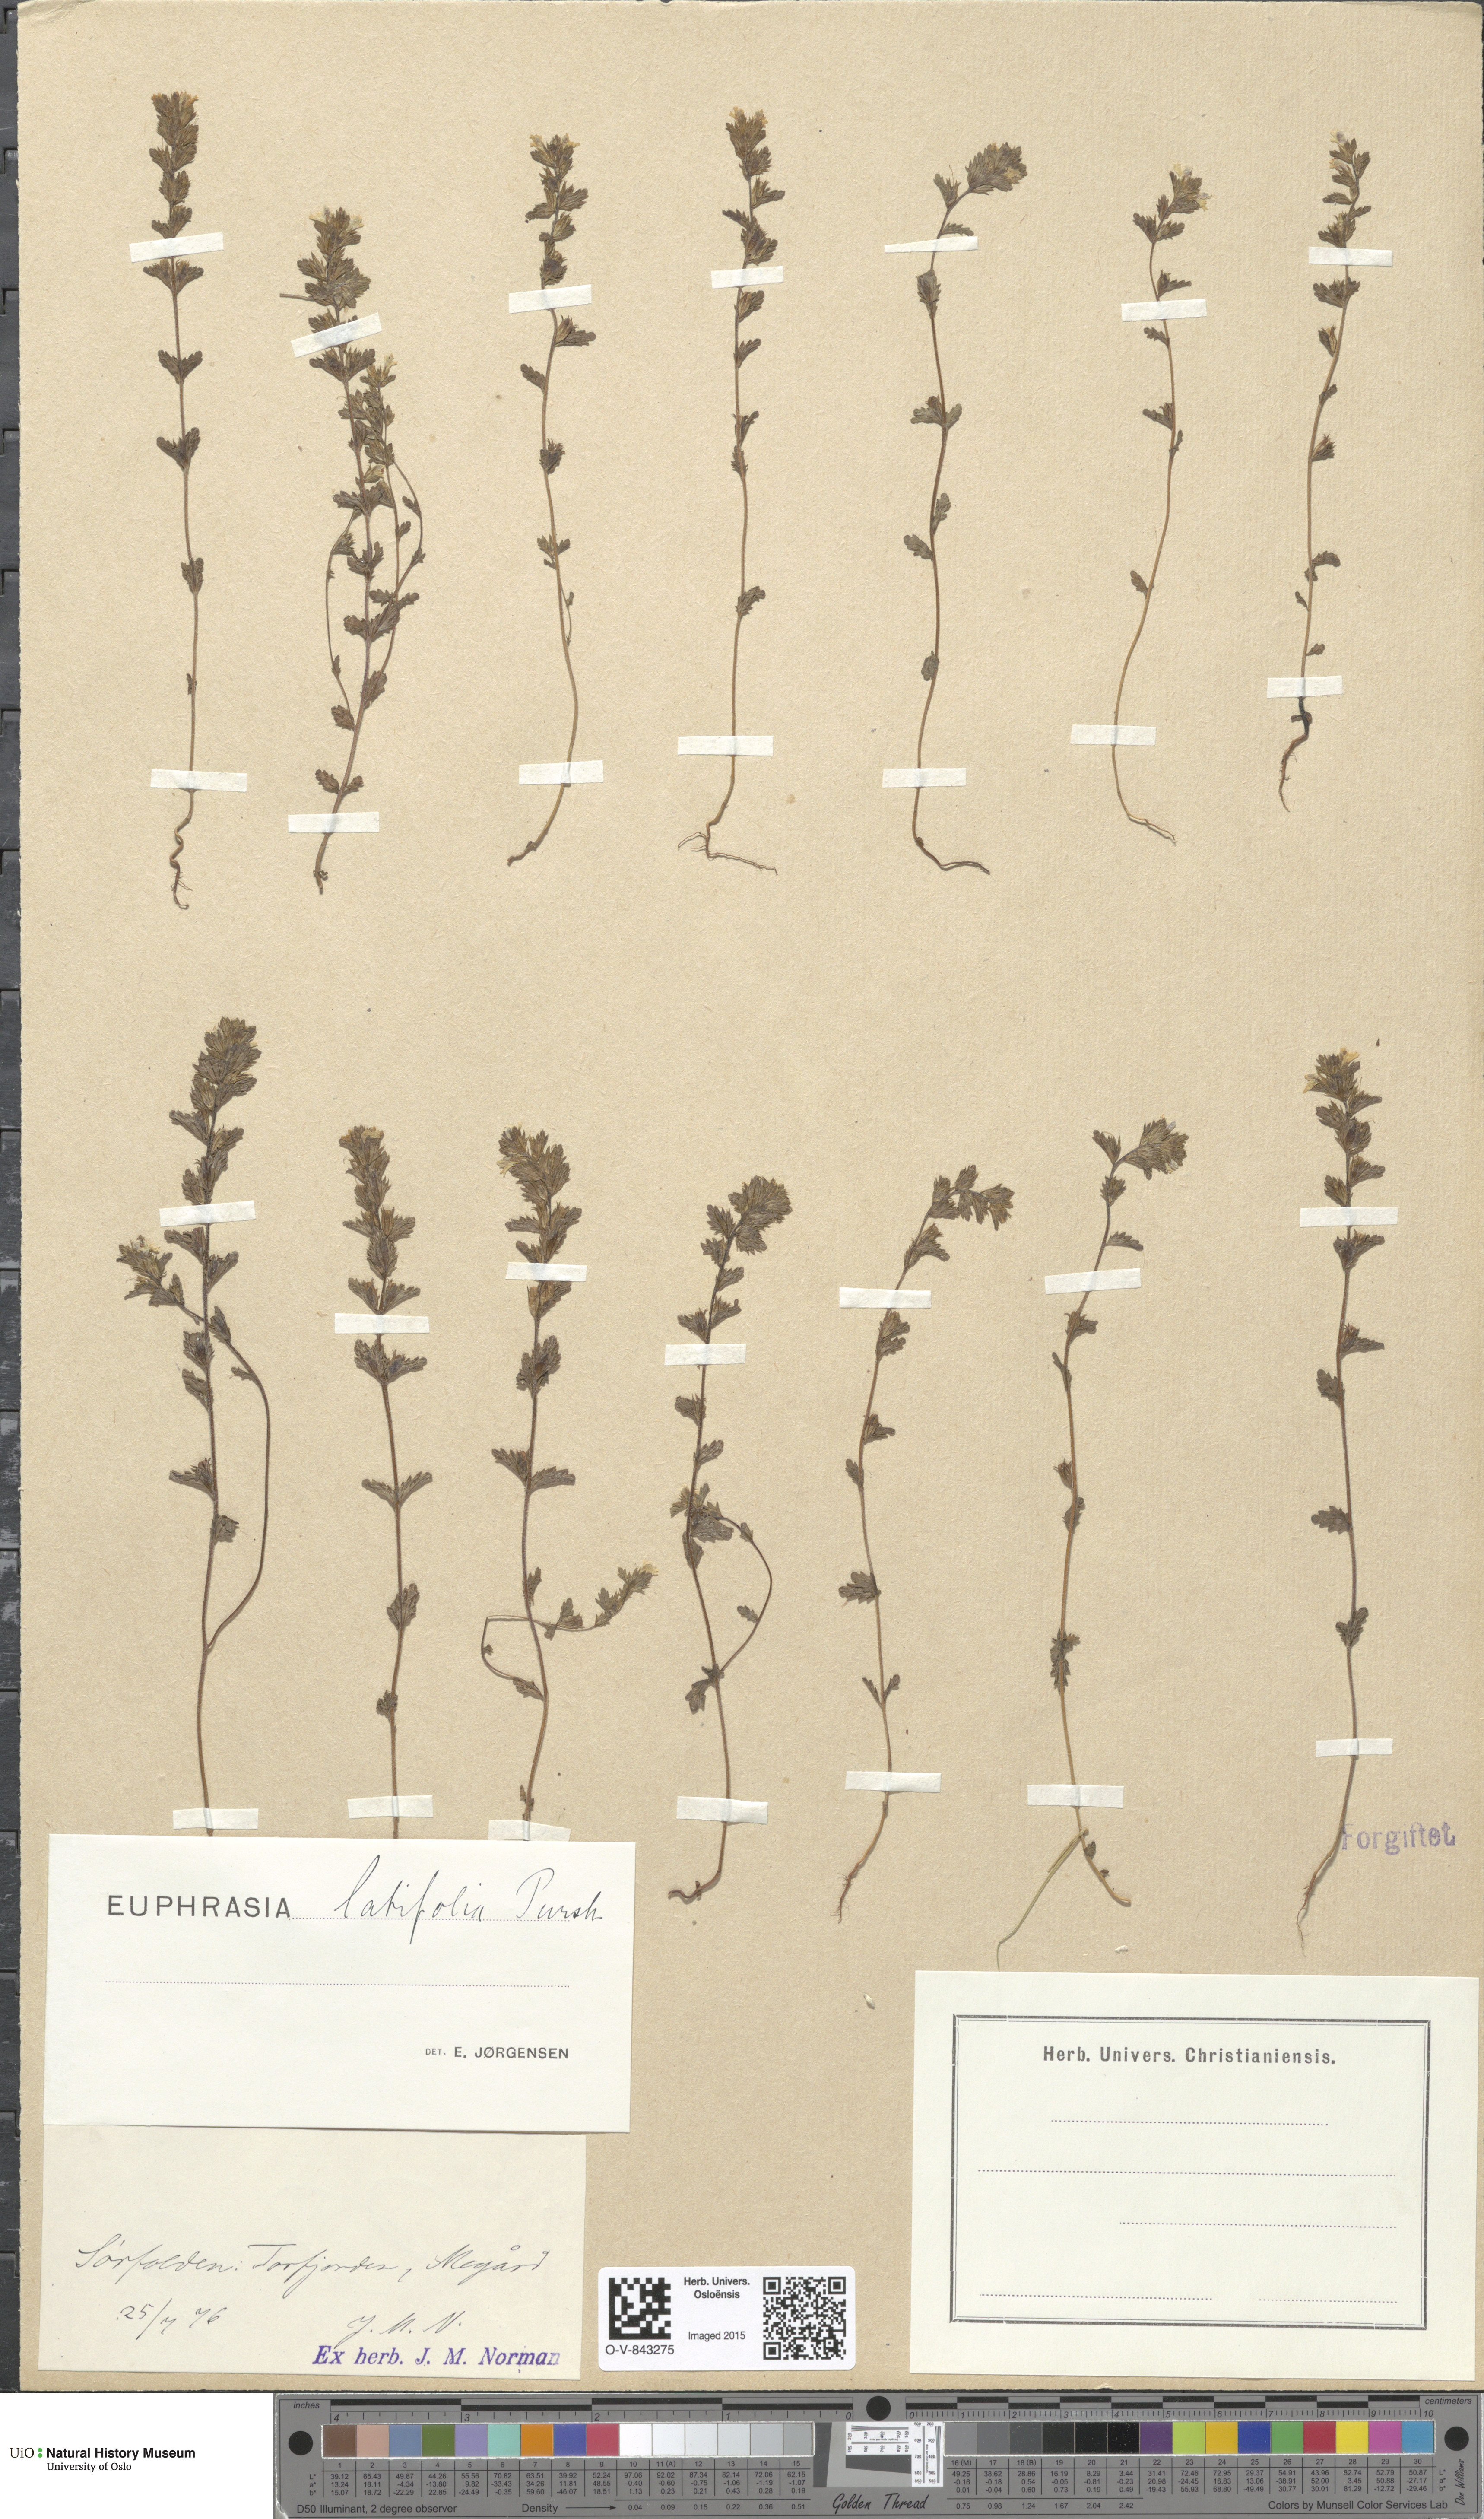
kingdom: Plantae
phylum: Tracheophyta
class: Magnoliopsida
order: Lamiales
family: Orobanchaceae
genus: Euphrasia
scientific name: Euphrasia wettsteinii
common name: Wettstein's eyebright
